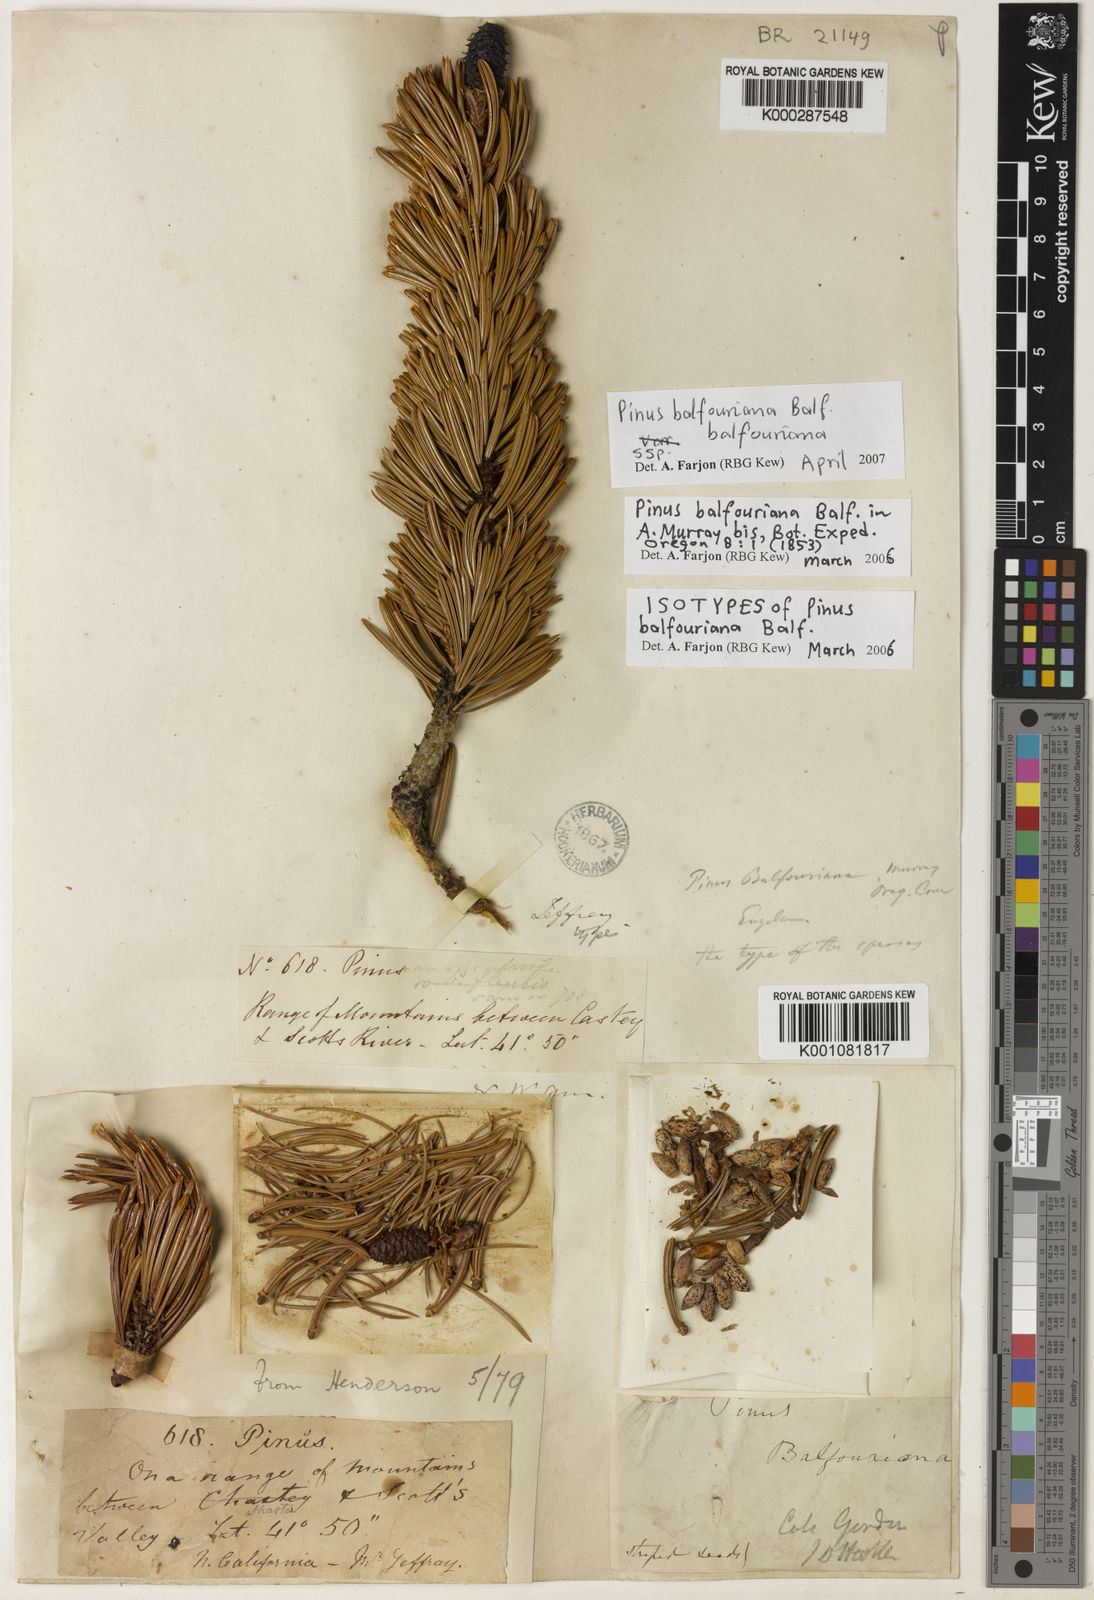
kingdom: Plantae
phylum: Tracheophyta
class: Pinopsida
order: Pinales
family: Pinaceae
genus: Pinus
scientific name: Pinus balfouriana
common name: Foxtail pine
